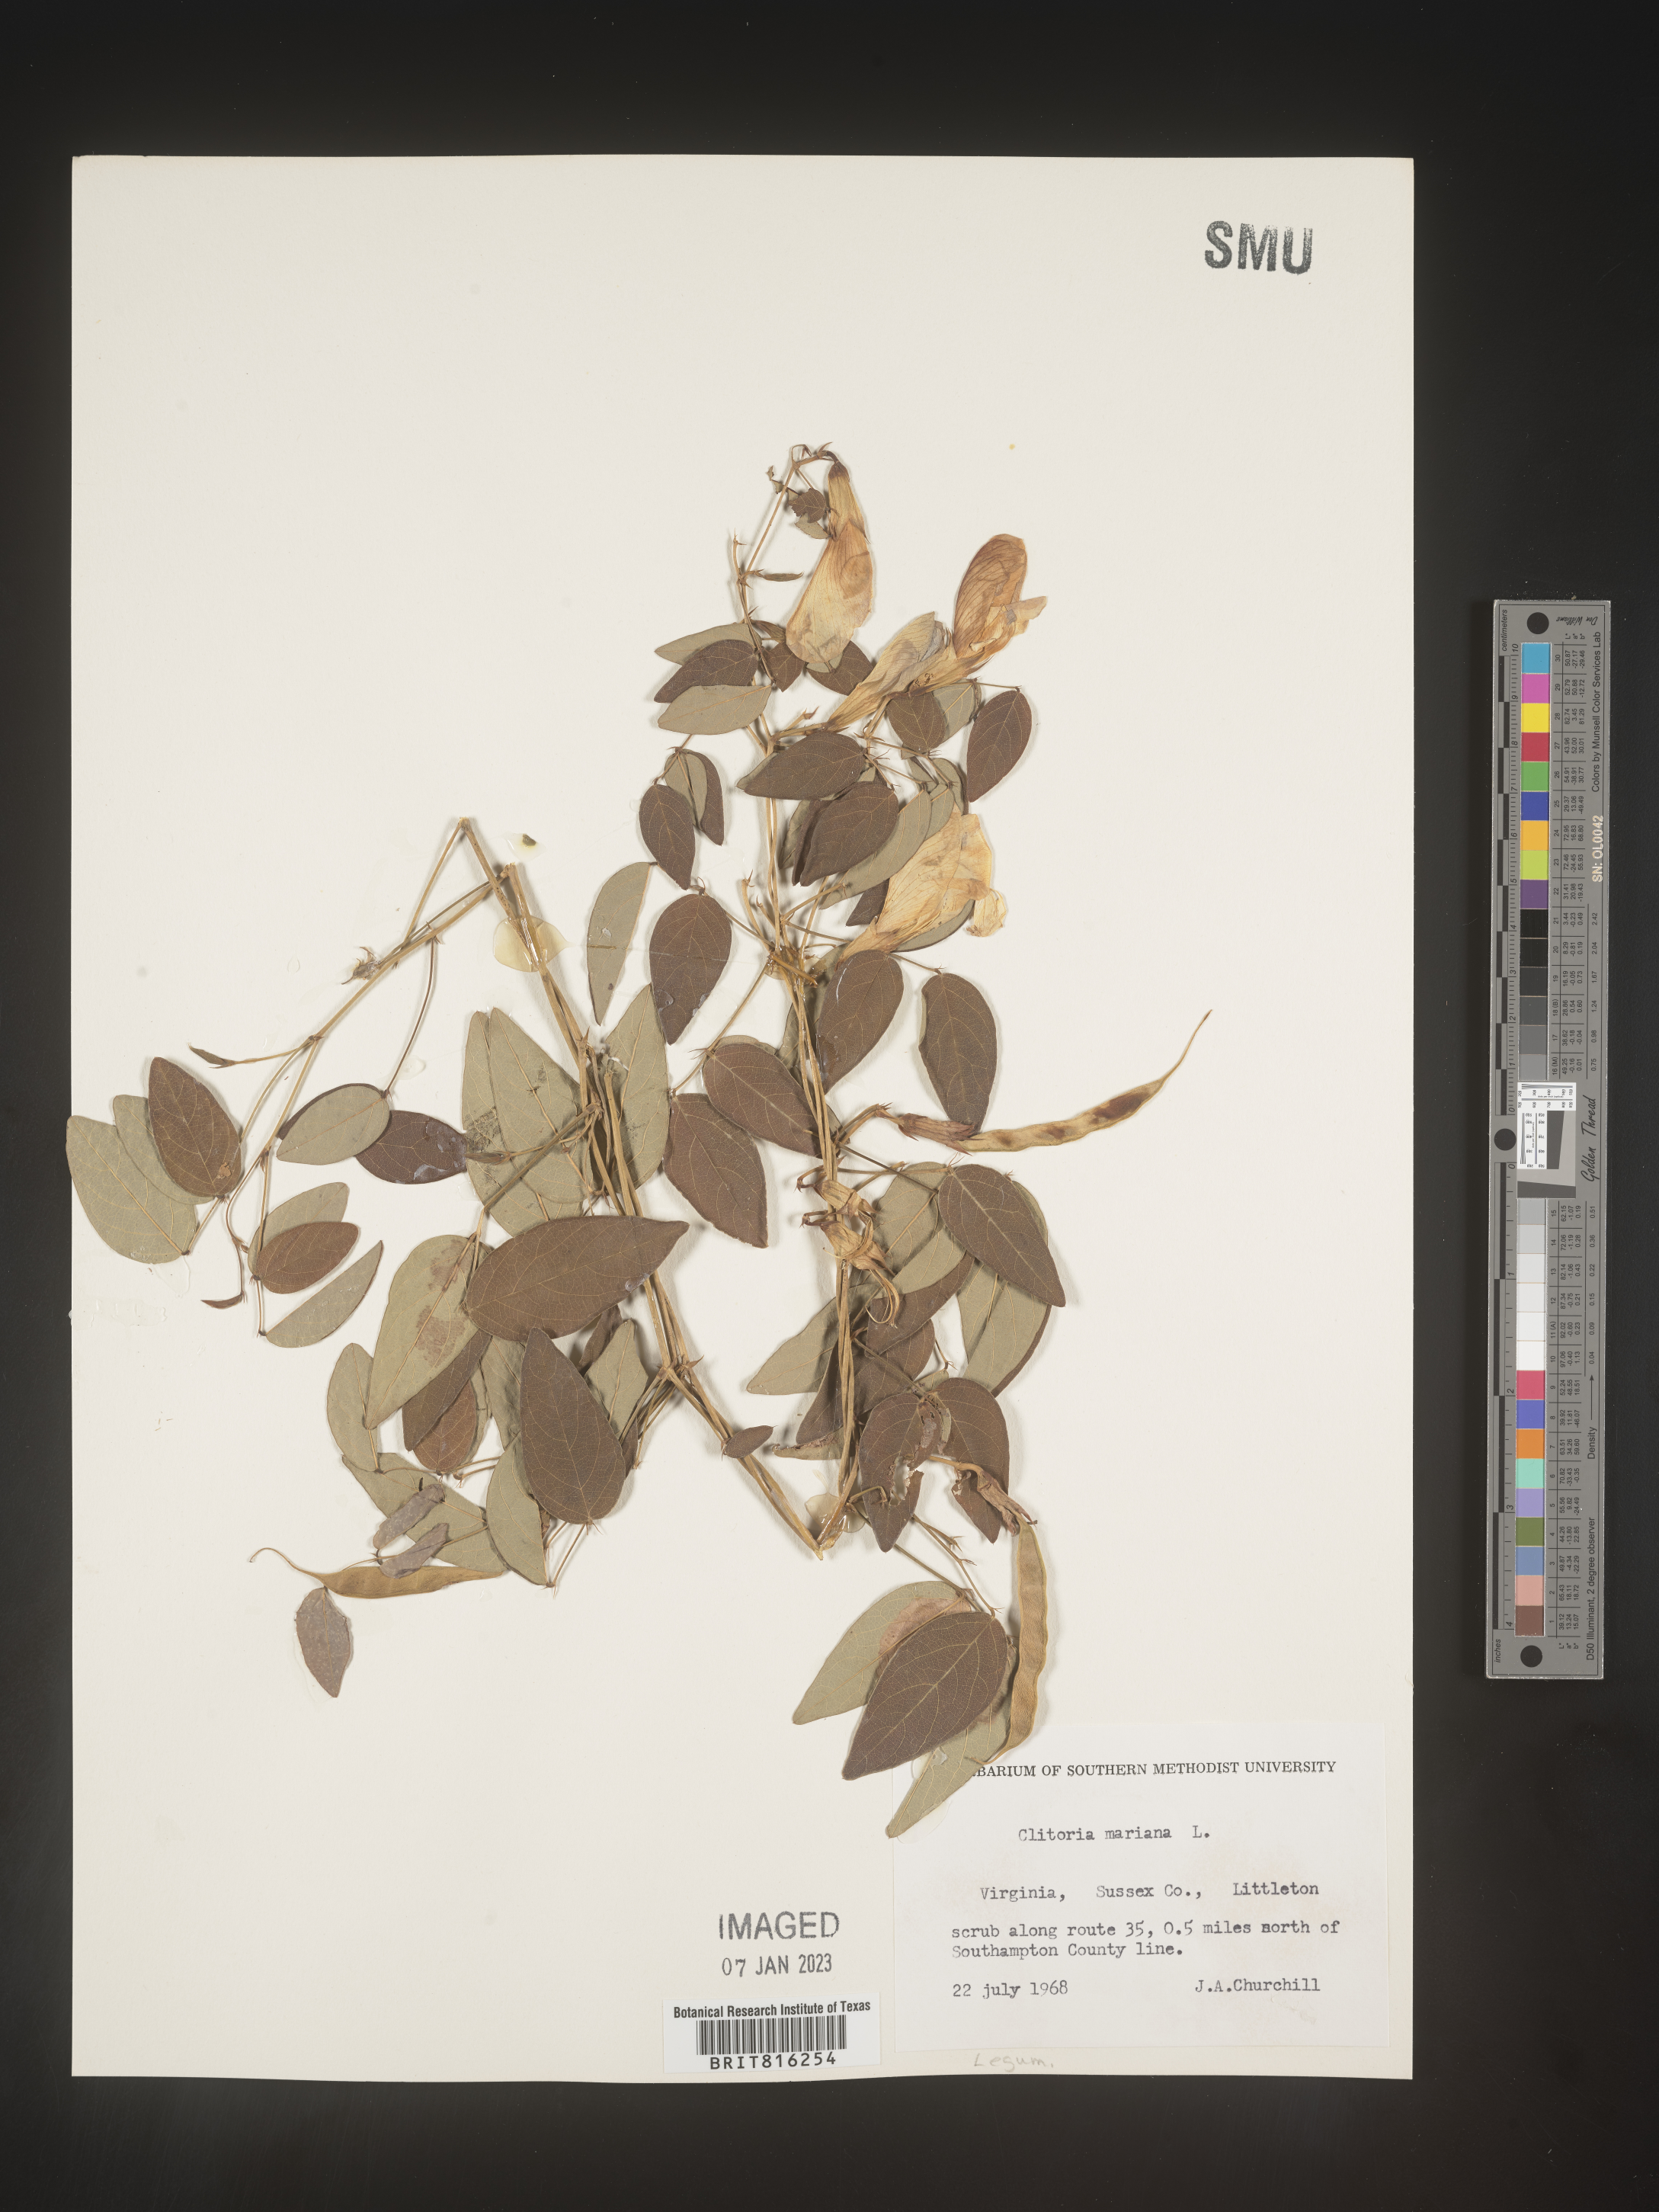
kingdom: Plantae
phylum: Tracheophyta
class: Magnoliopsida
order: Fabales
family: Fabaceae
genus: Clitoria
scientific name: Clitoria mariana
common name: Butterfly-pea
